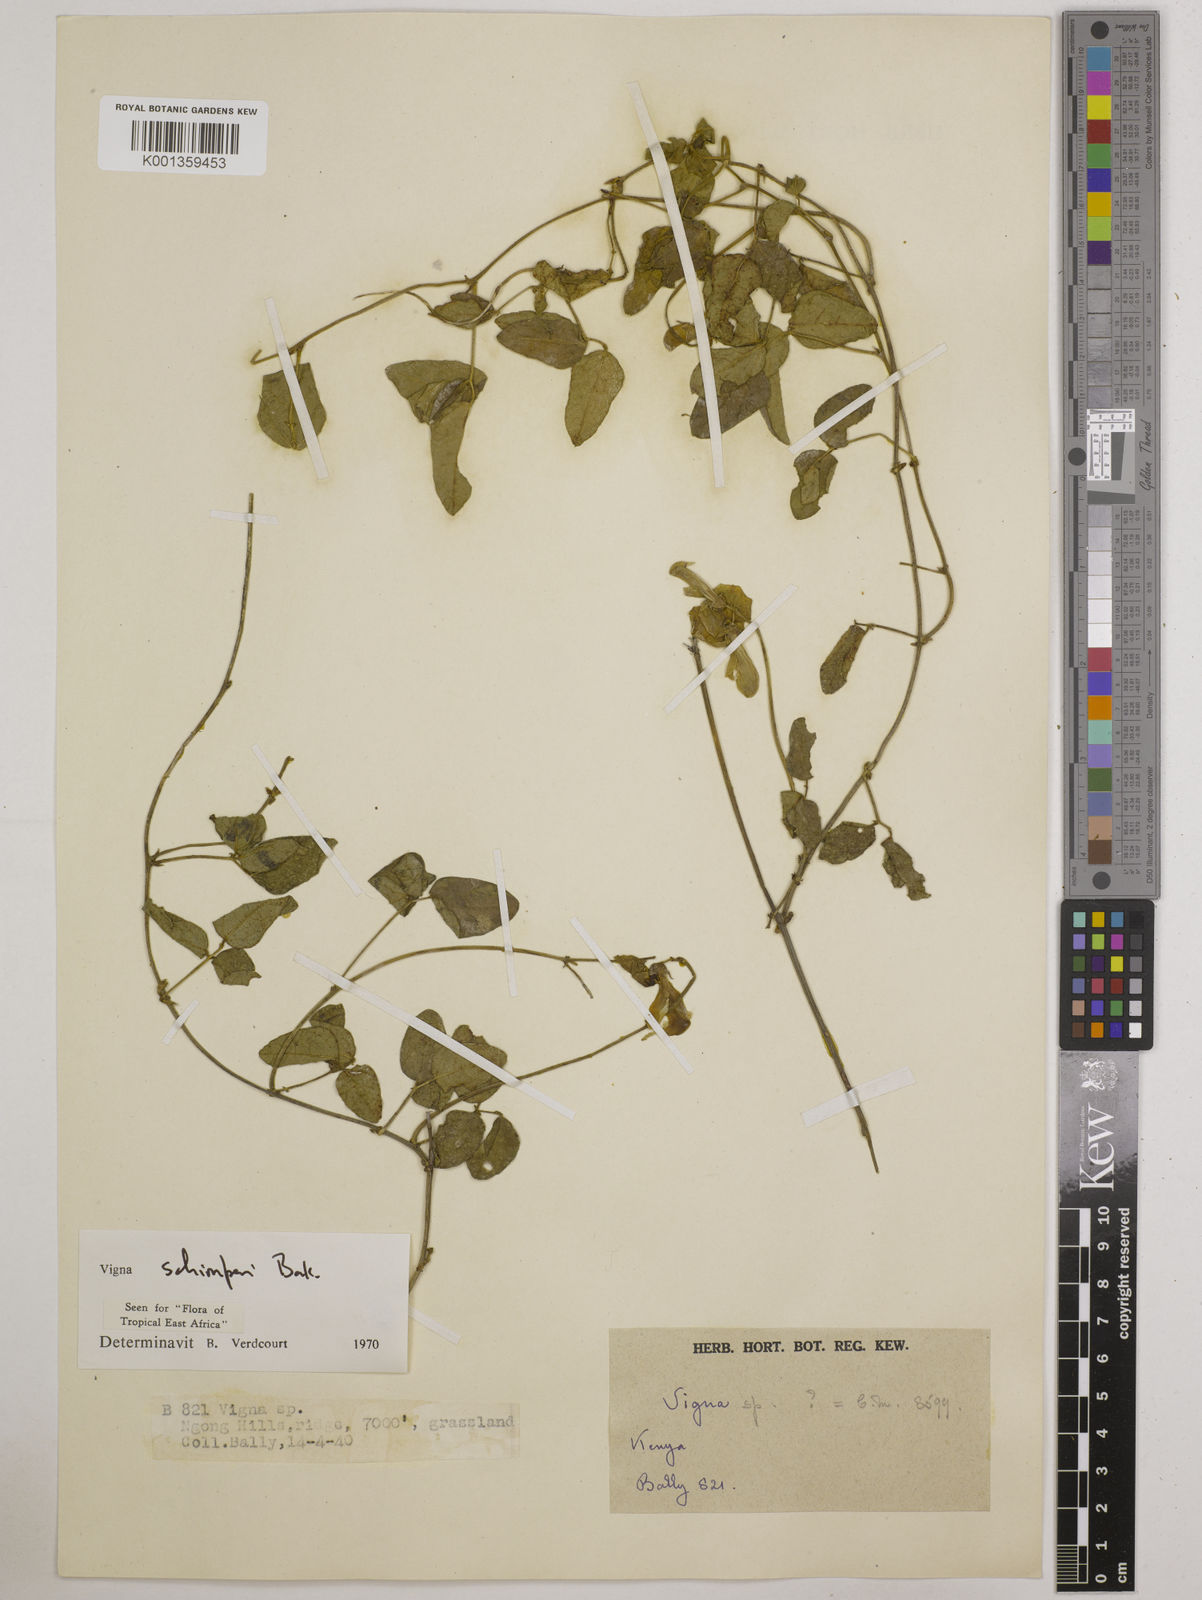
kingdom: Plantae
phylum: Tracheophyta
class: Magnoliopsida
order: Fabales
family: Fabaceae
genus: Vigna
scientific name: Vigna schimperi
